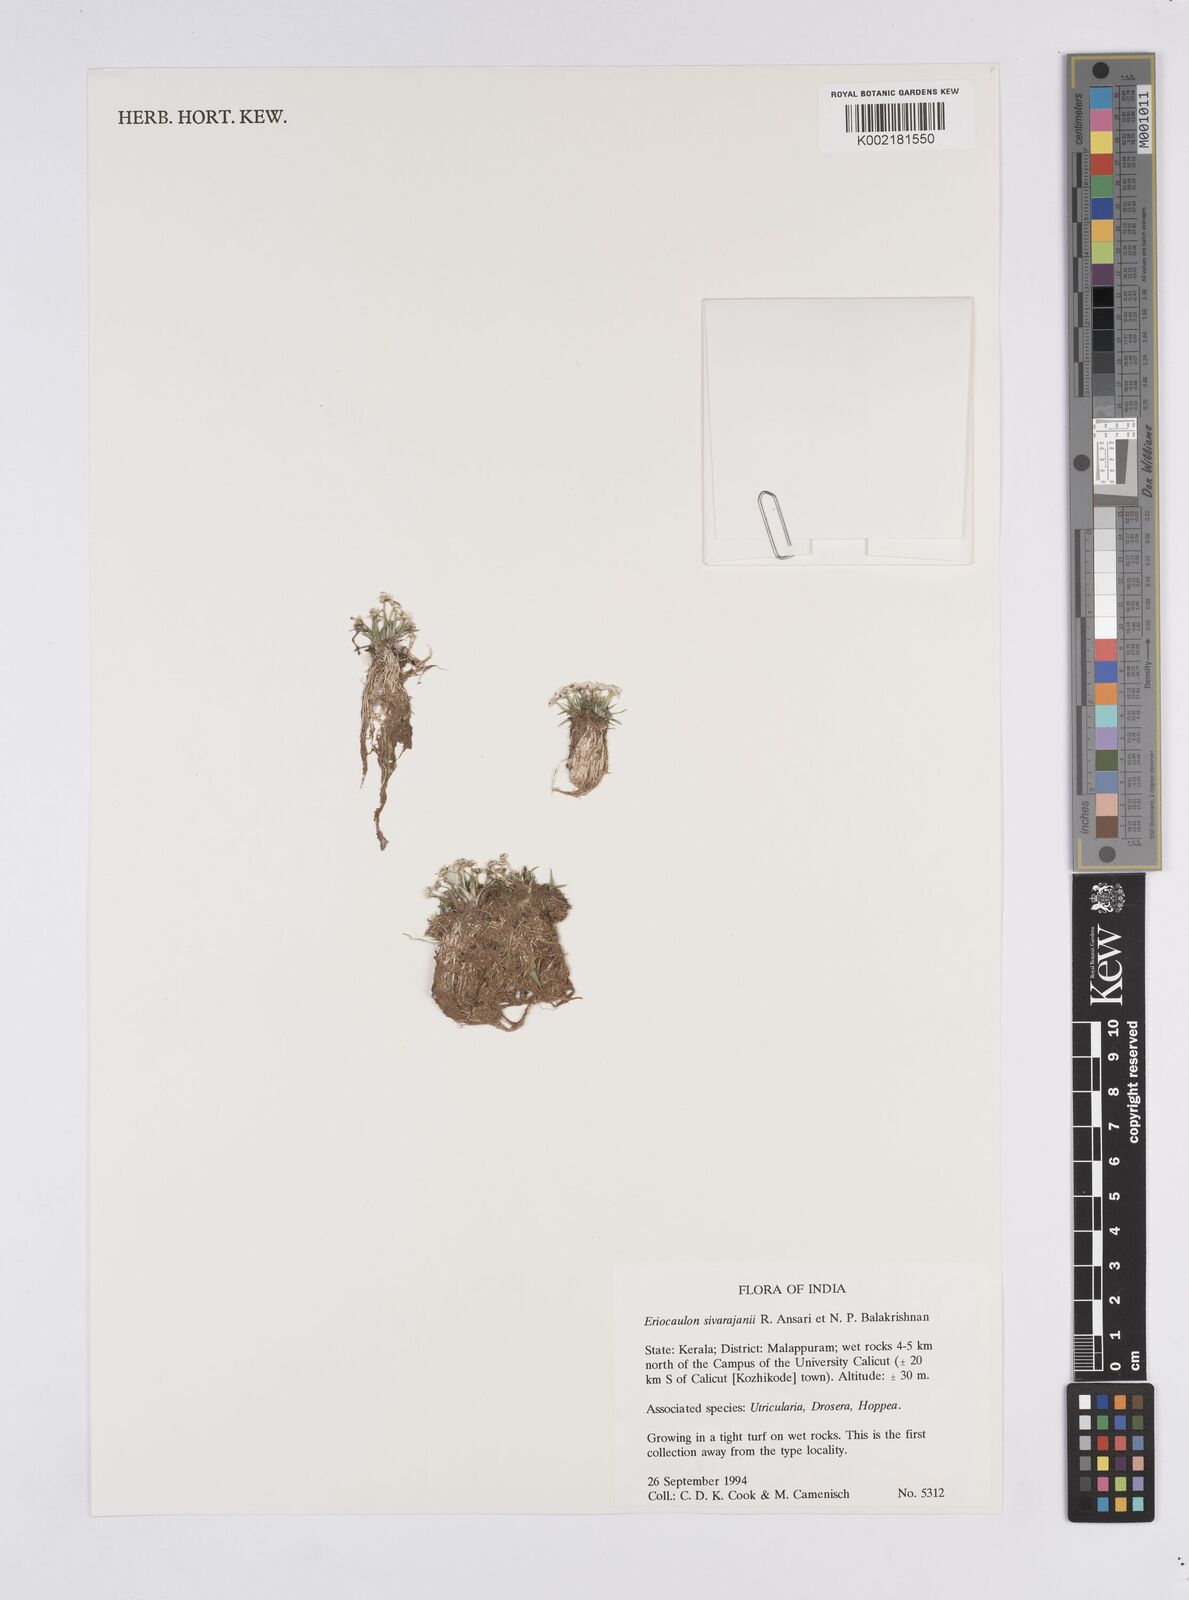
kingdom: Plantae
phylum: Tracheophyta
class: Liliopsida
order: Poales
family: Eriocaulaceae
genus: Eriocaulon
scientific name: Eriocaulon sivarajanii
